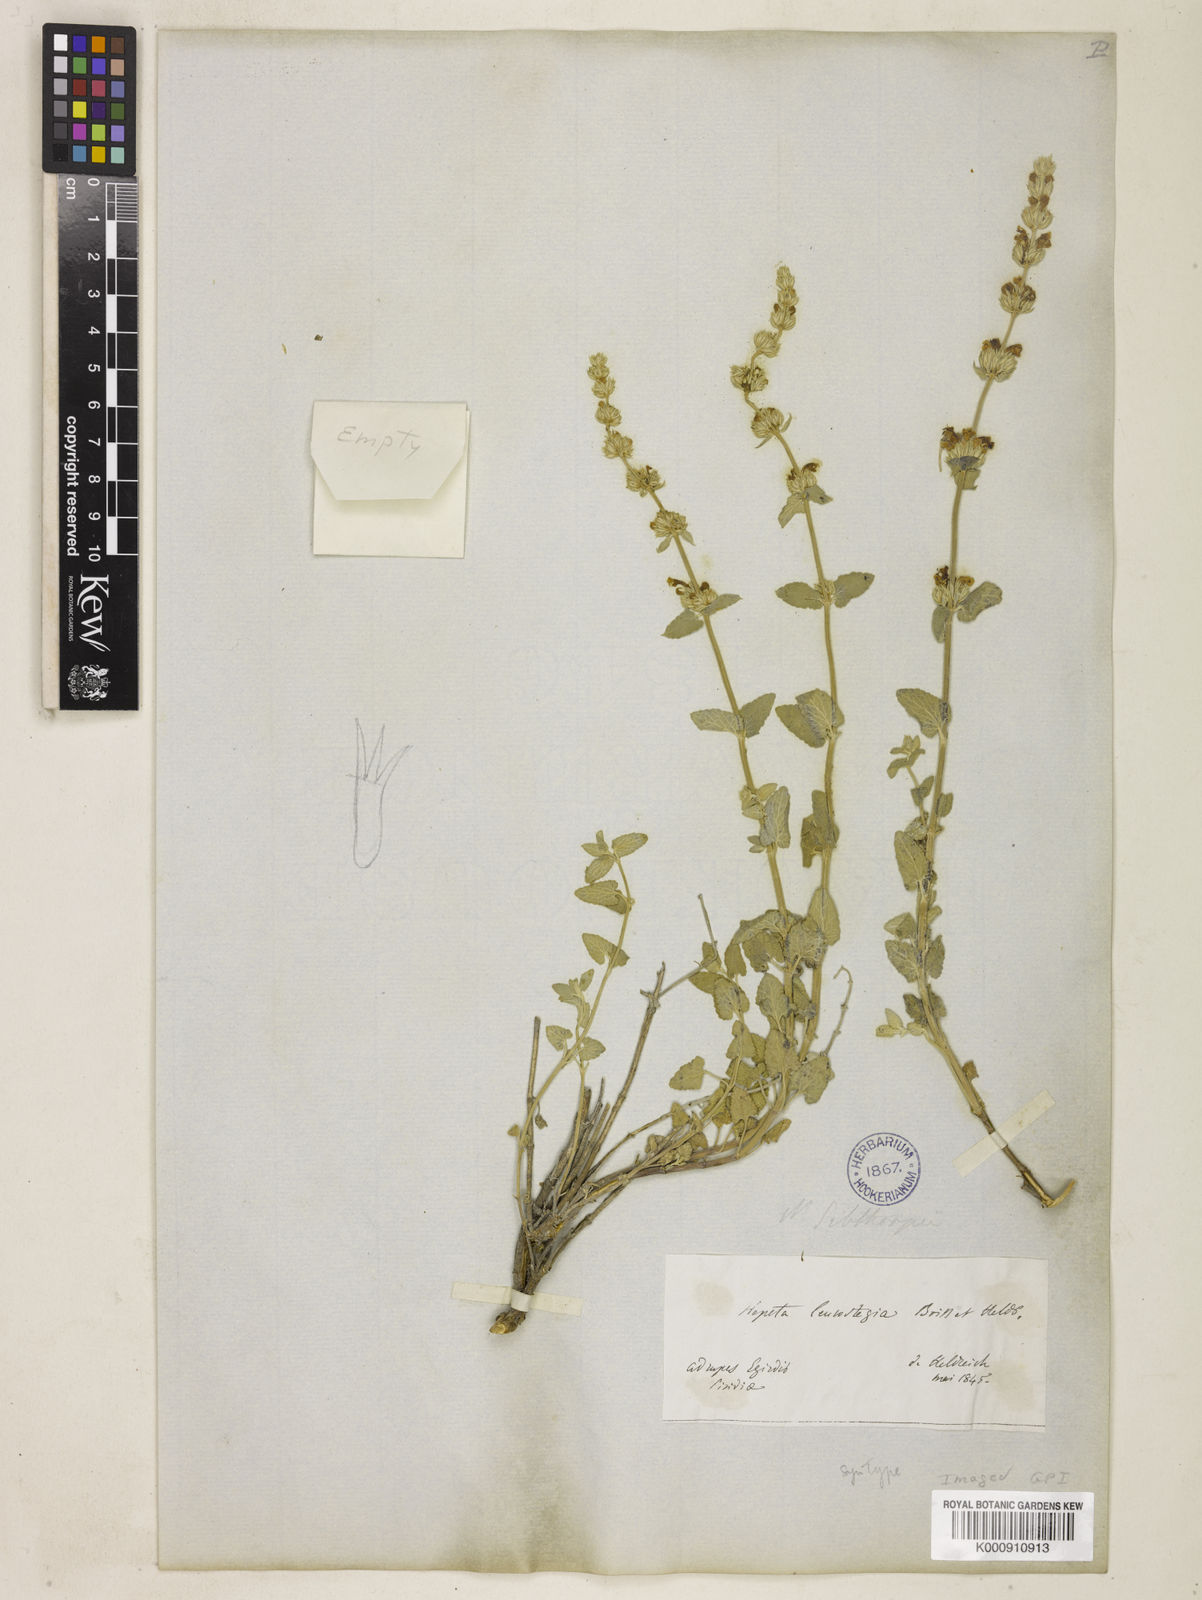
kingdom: Plantae
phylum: Tracheophyta
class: Magnoliopsida
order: Lamiales
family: Lamiaceae
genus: Nepeta
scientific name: Nepeta italica
